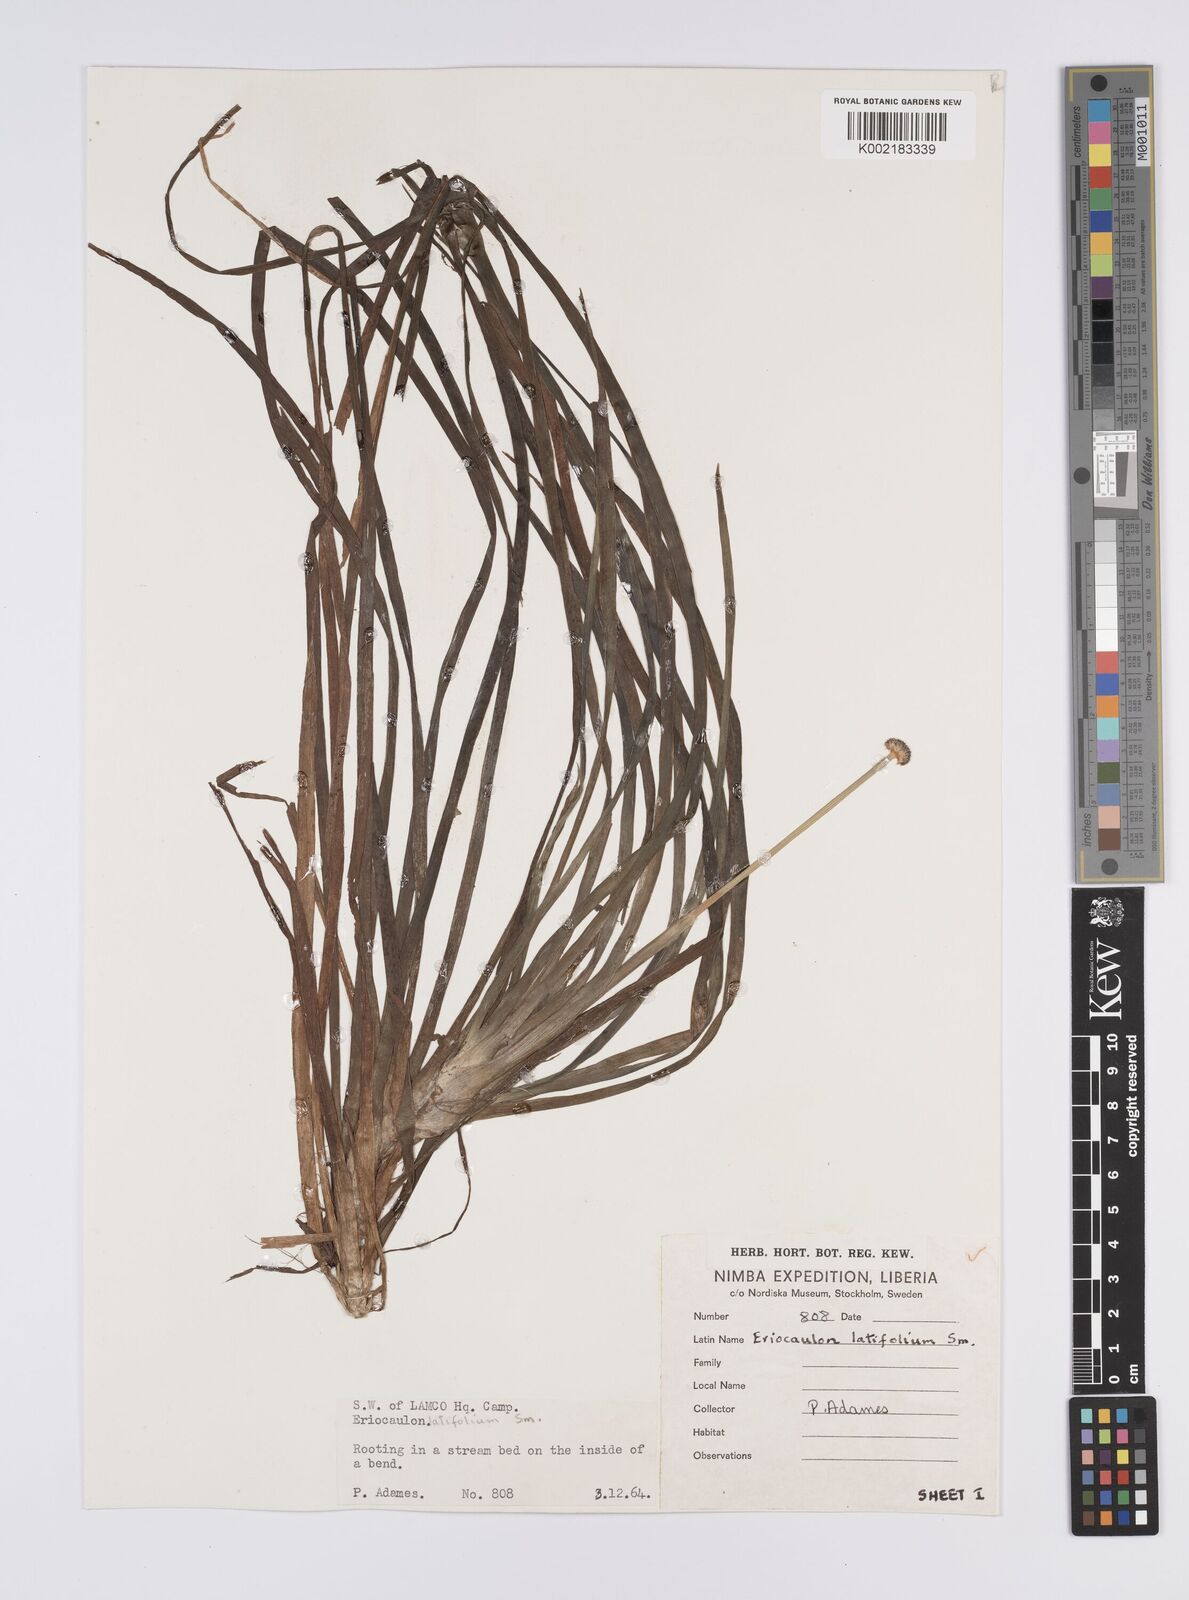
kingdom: Plantae
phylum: Tracheophyta
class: Liliopsida
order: Poales
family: Eriocaulaceae
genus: Eriocaulon
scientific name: Eriocaulon latifolium
